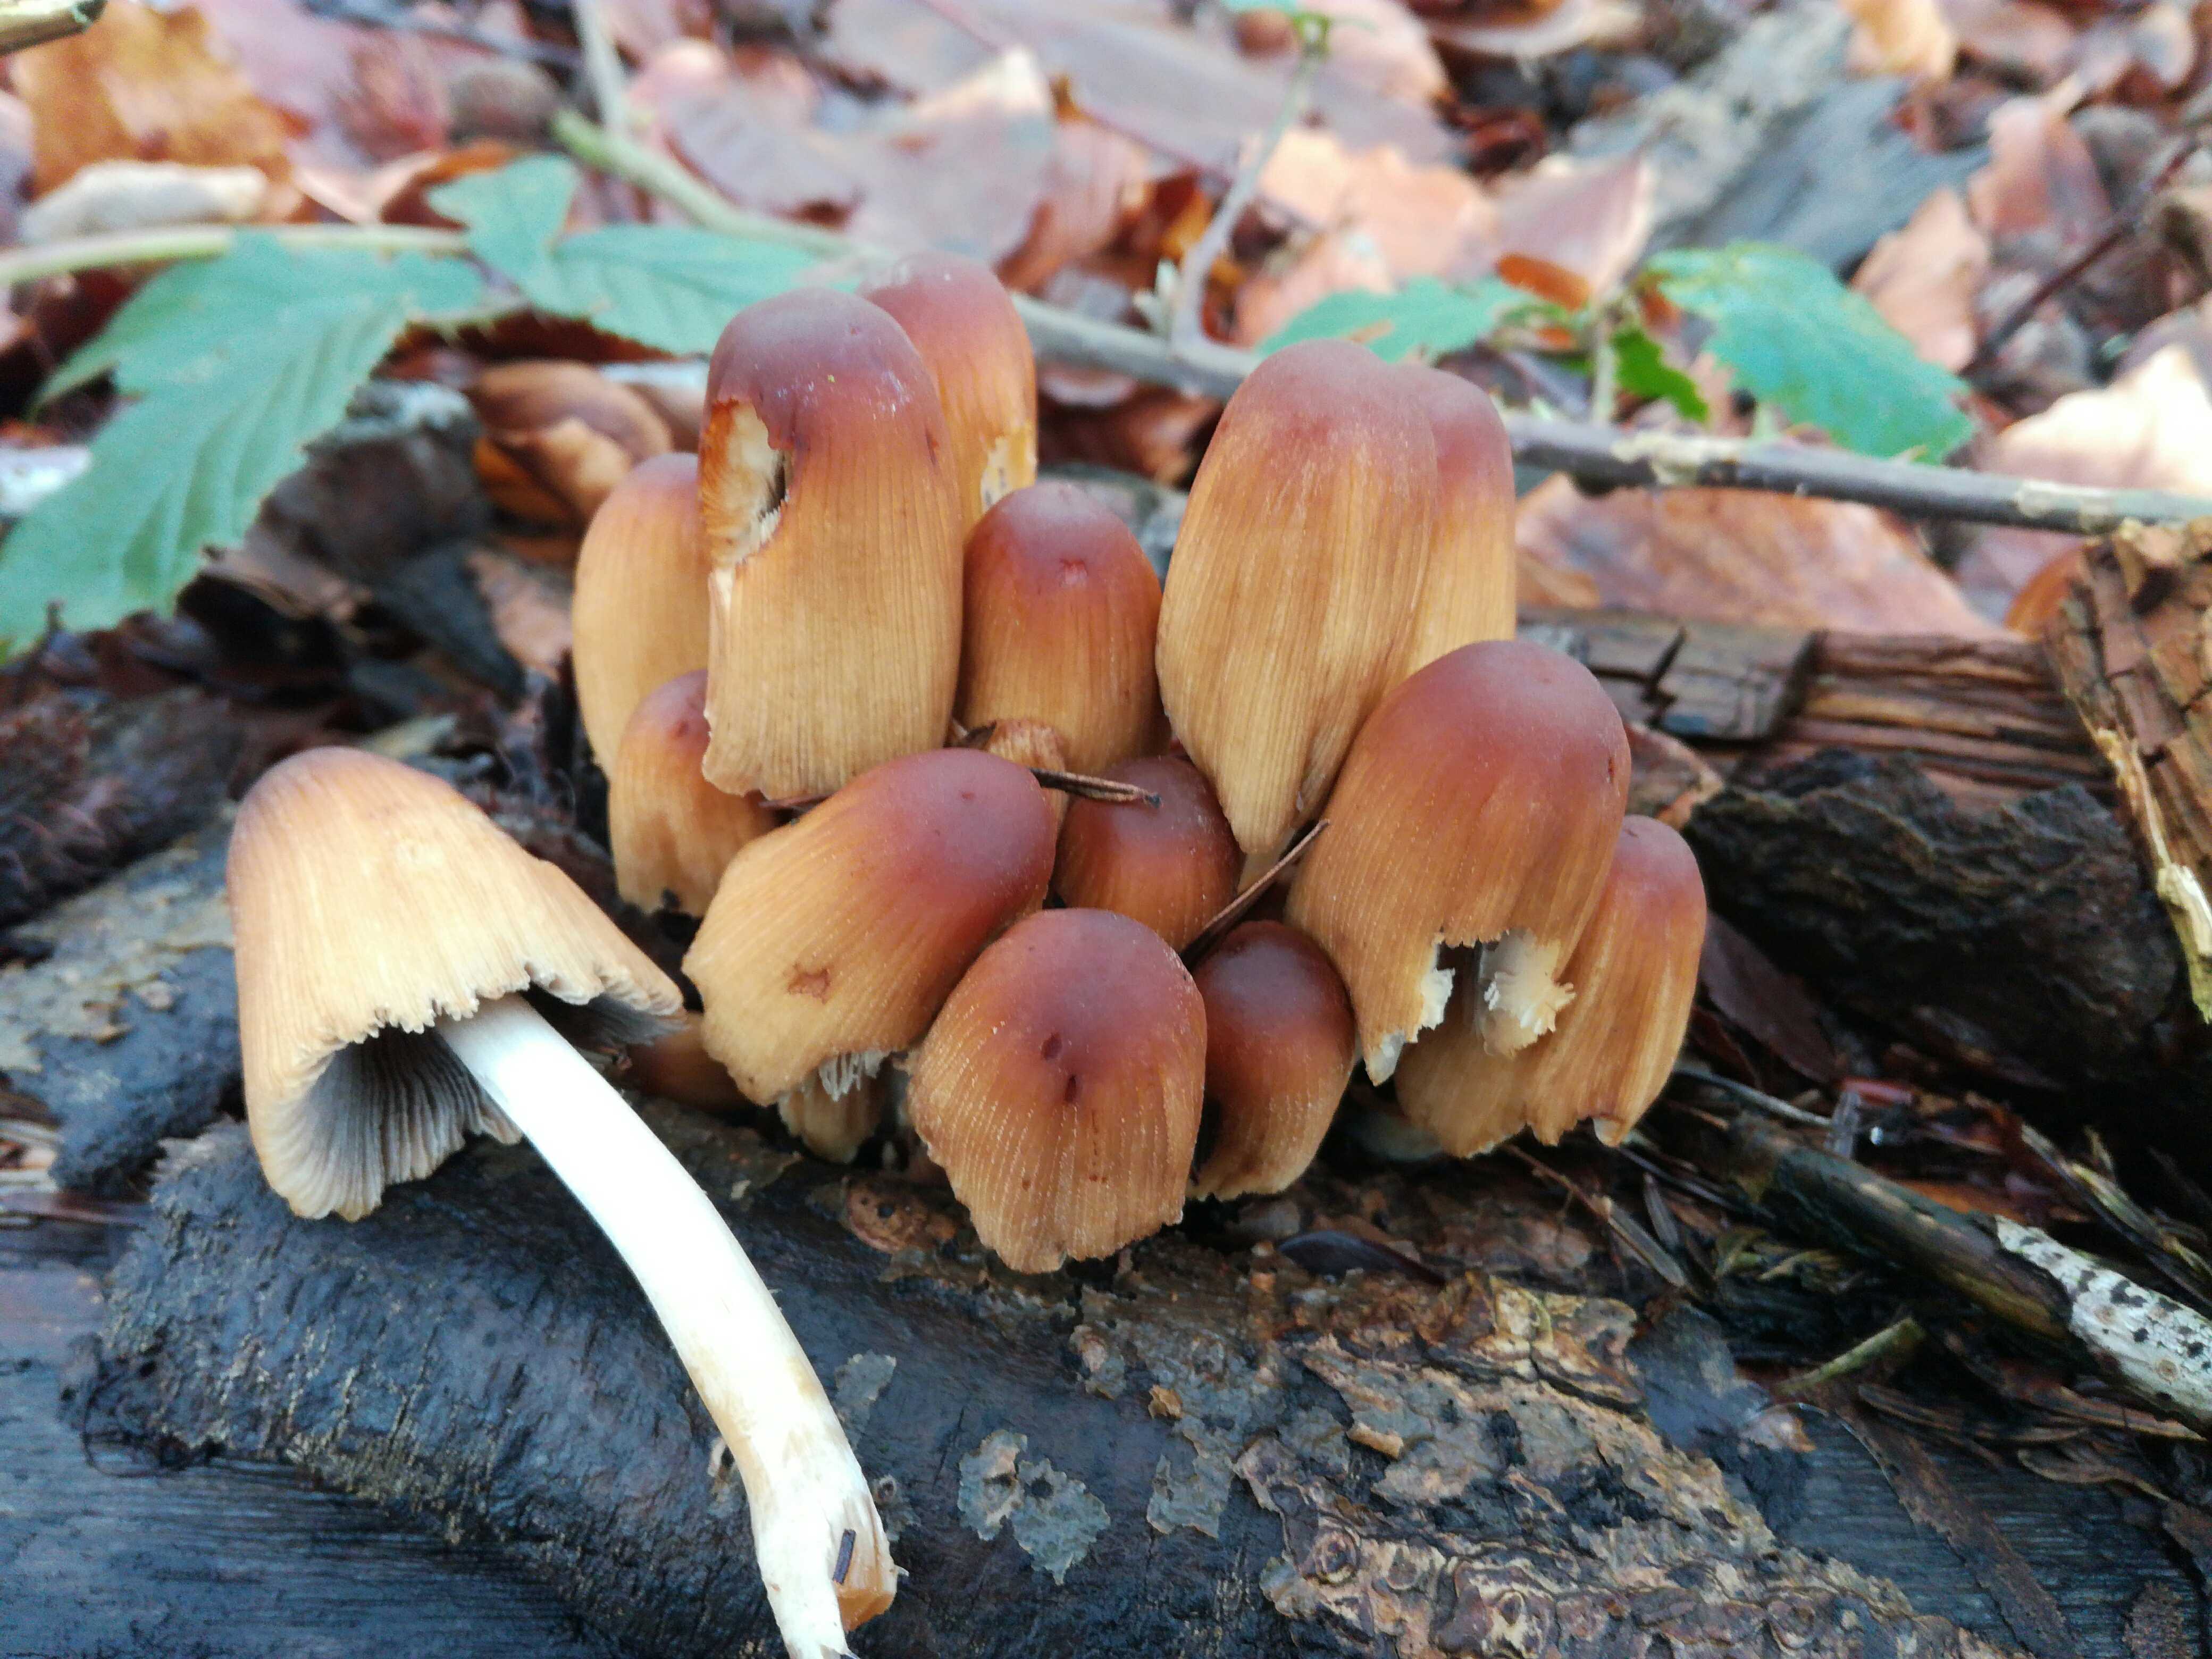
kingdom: Fungi
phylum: Basidiomycota
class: Agaricomycetes
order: Agaricales
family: Psathyrellaceae
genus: Coprinellus
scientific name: Coprinellus micaceus
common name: glimmer-blækhat
